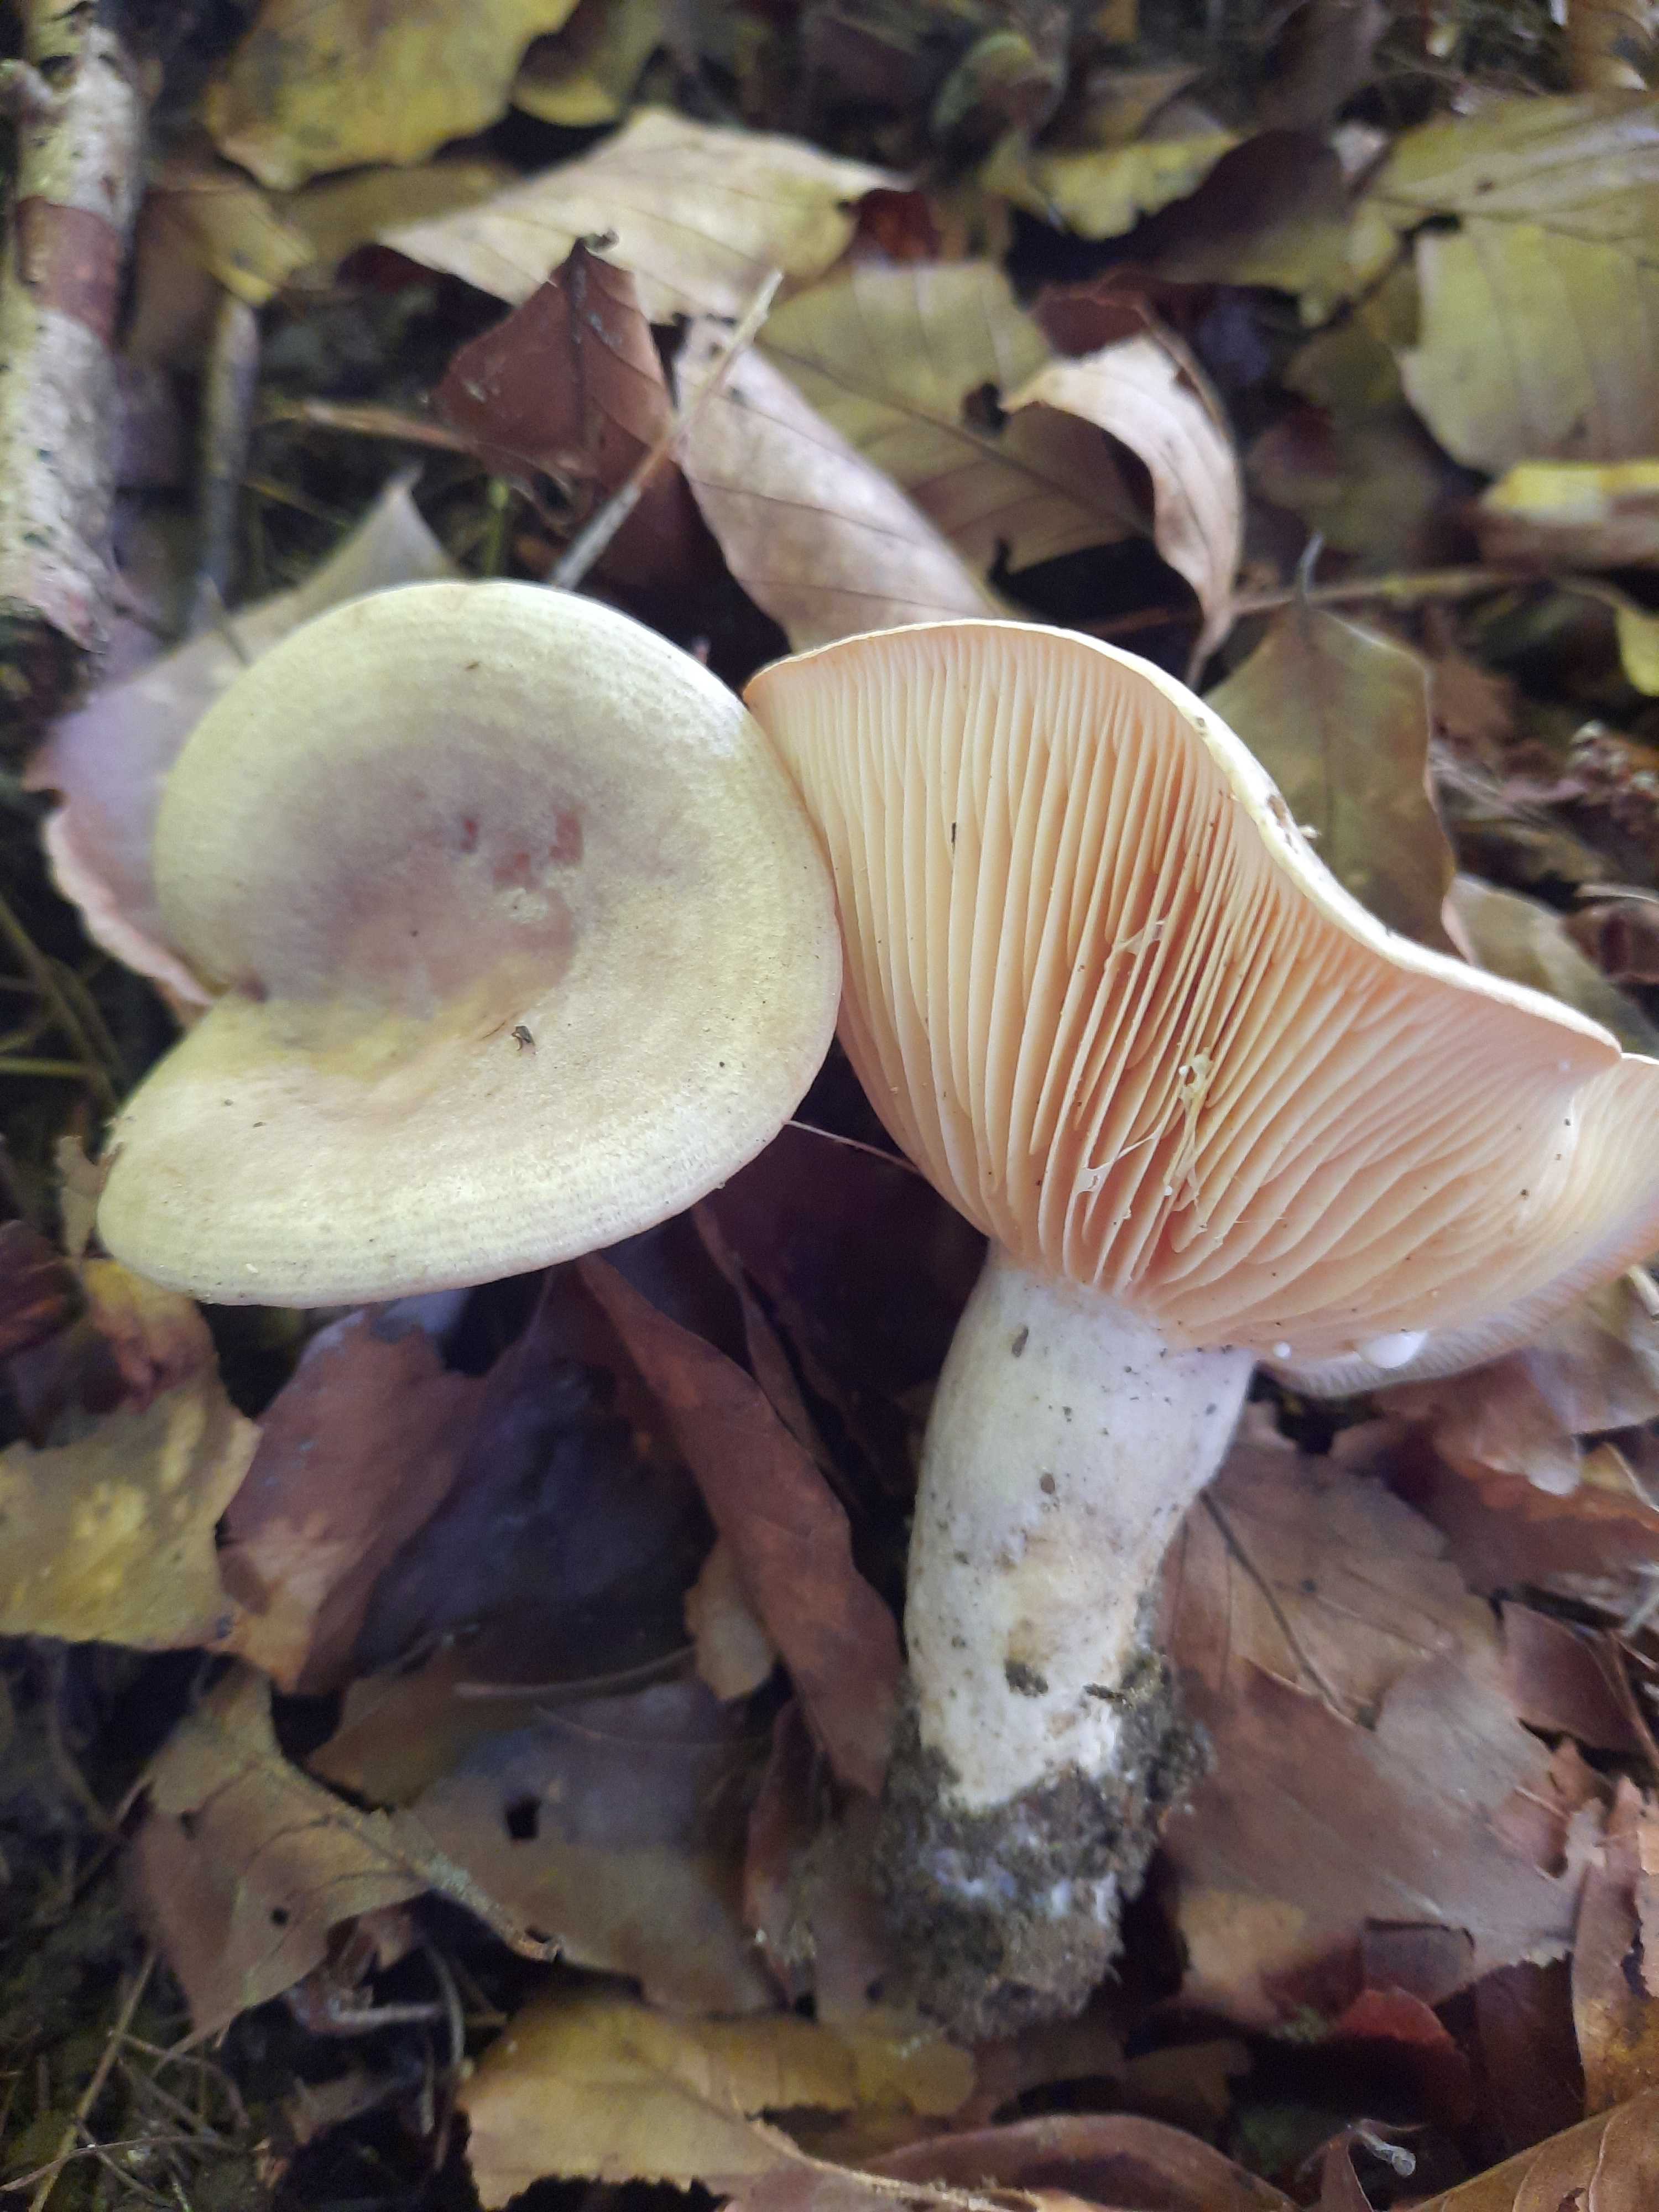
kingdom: Fungi
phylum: Basidiomycota
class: Agaricomycetes
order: Russulales
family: Russulaceae
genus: Lactarius
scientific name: Lactarius pyrogalus
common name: hassel-mælkehat
